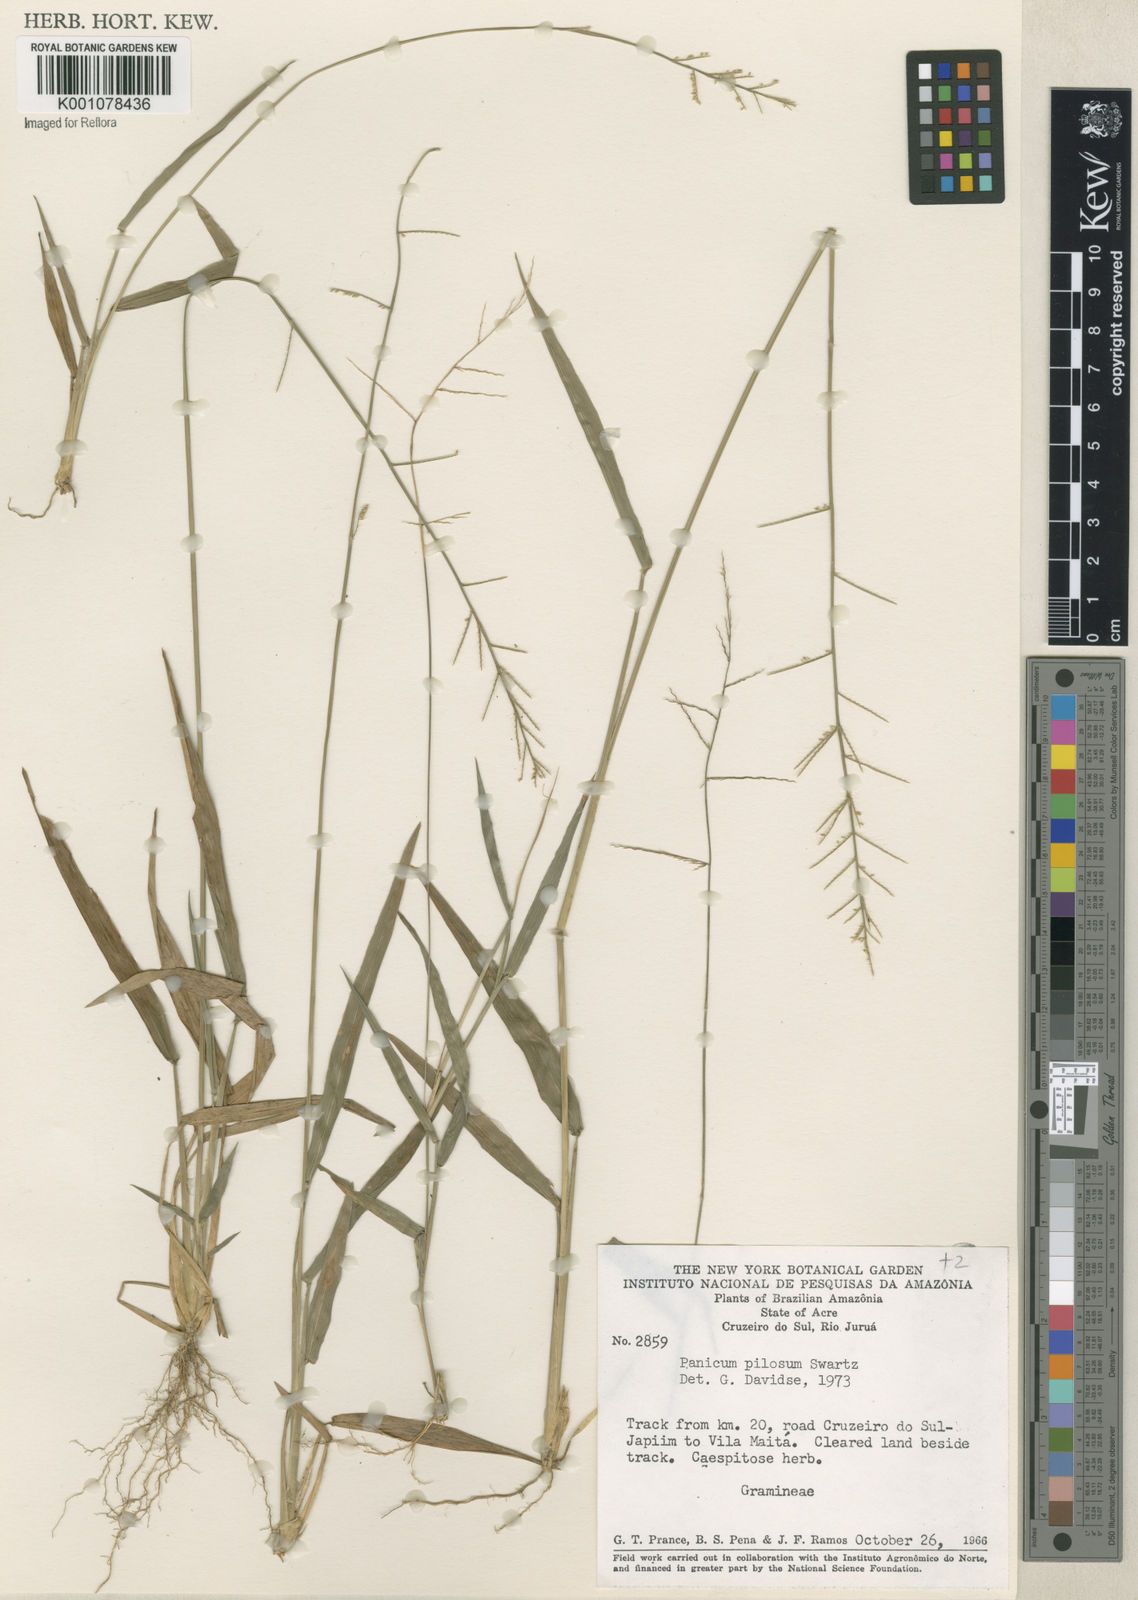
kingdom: Plantae
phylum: Tracheophyta
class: Liliopsida
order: Poales
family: Poaceae
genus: Rugoloa
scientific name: Rugoloa pilosa
